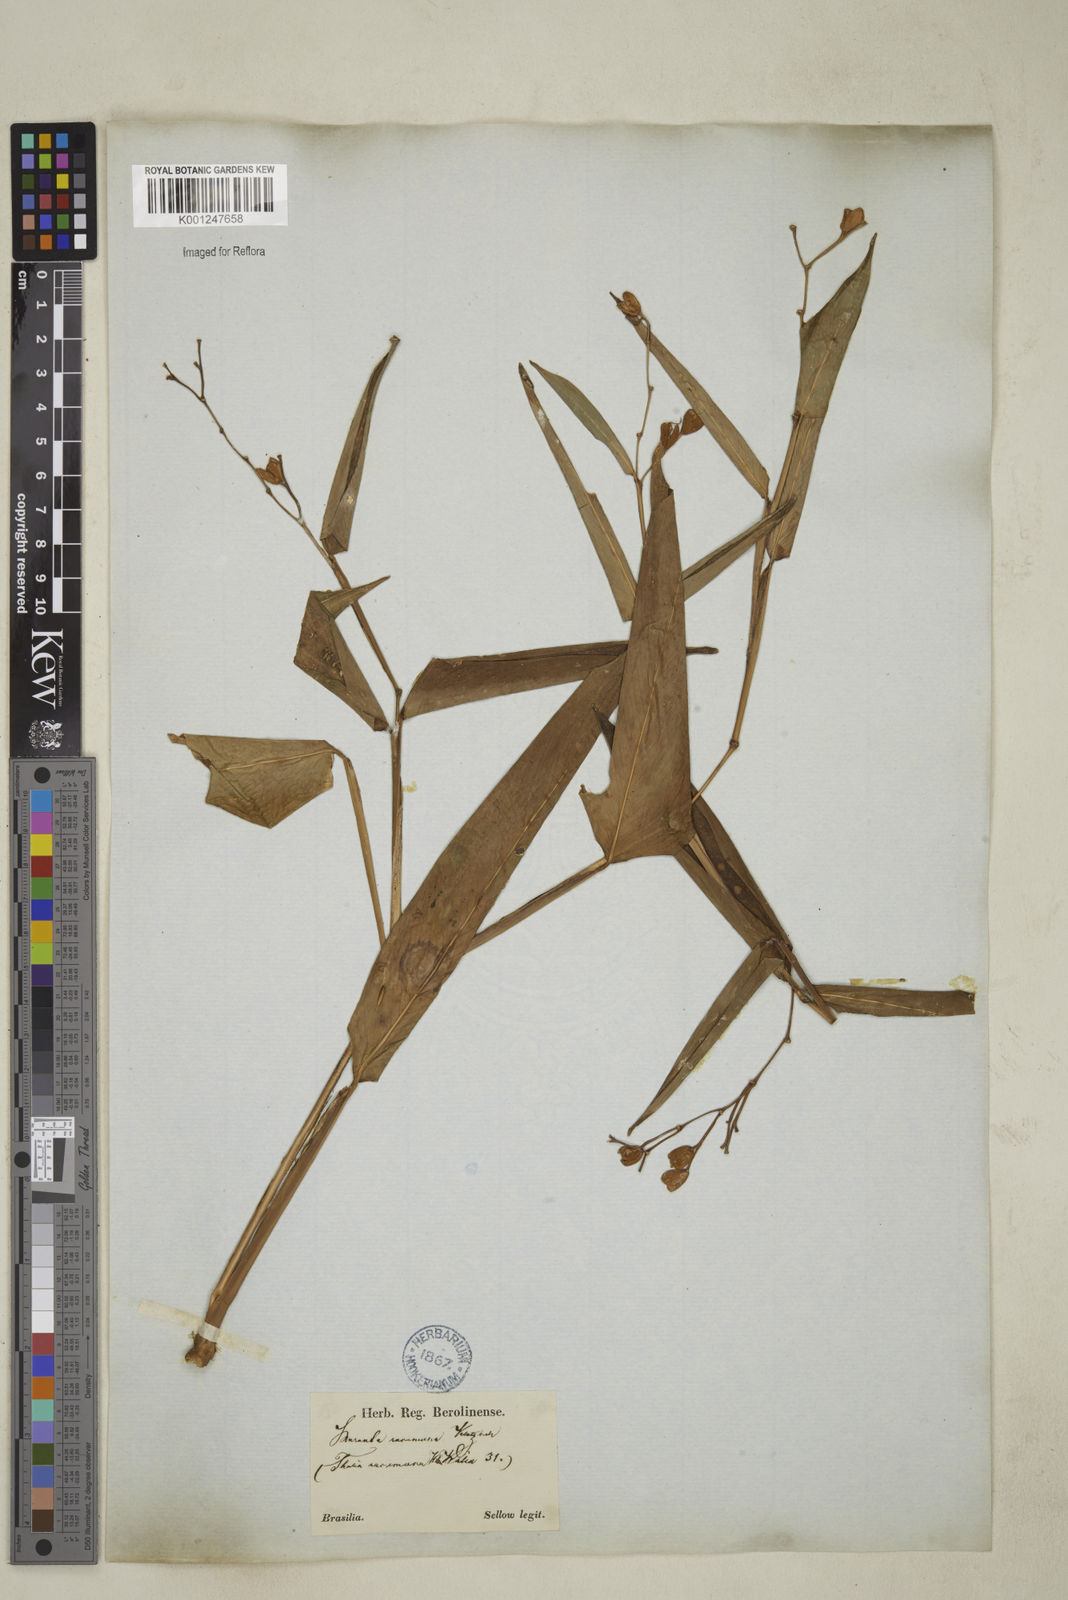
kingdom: Plantae
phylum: Tracheophyta
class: Liliopsida
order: Zingiberales
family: Marantaceae
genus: Stromanthe
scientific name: Stromanthe tonckat
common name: Stromanthe
